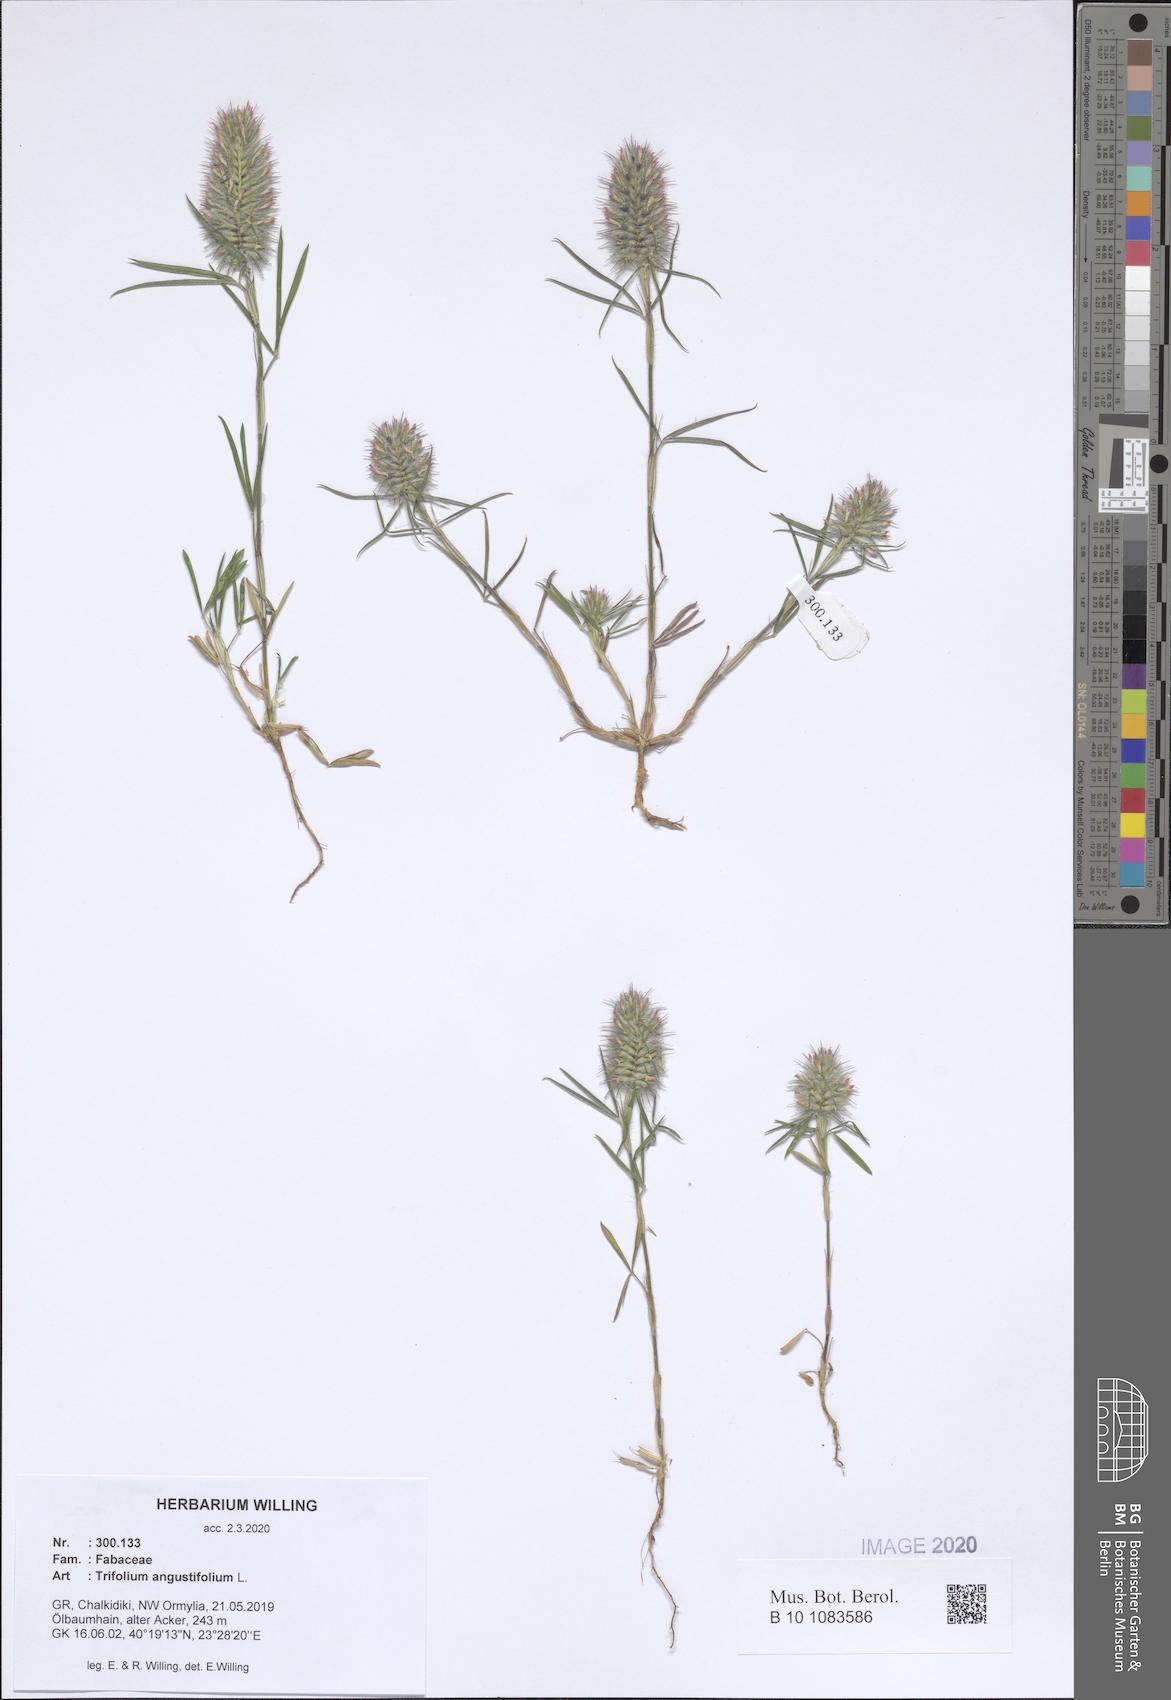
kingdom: Plantae
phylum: Tracheophyta
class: Magnoliopsida
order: Fabales
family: Fabaceae
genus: Trifolium
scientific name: Trifolium angustifolium
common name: Narrow clover
